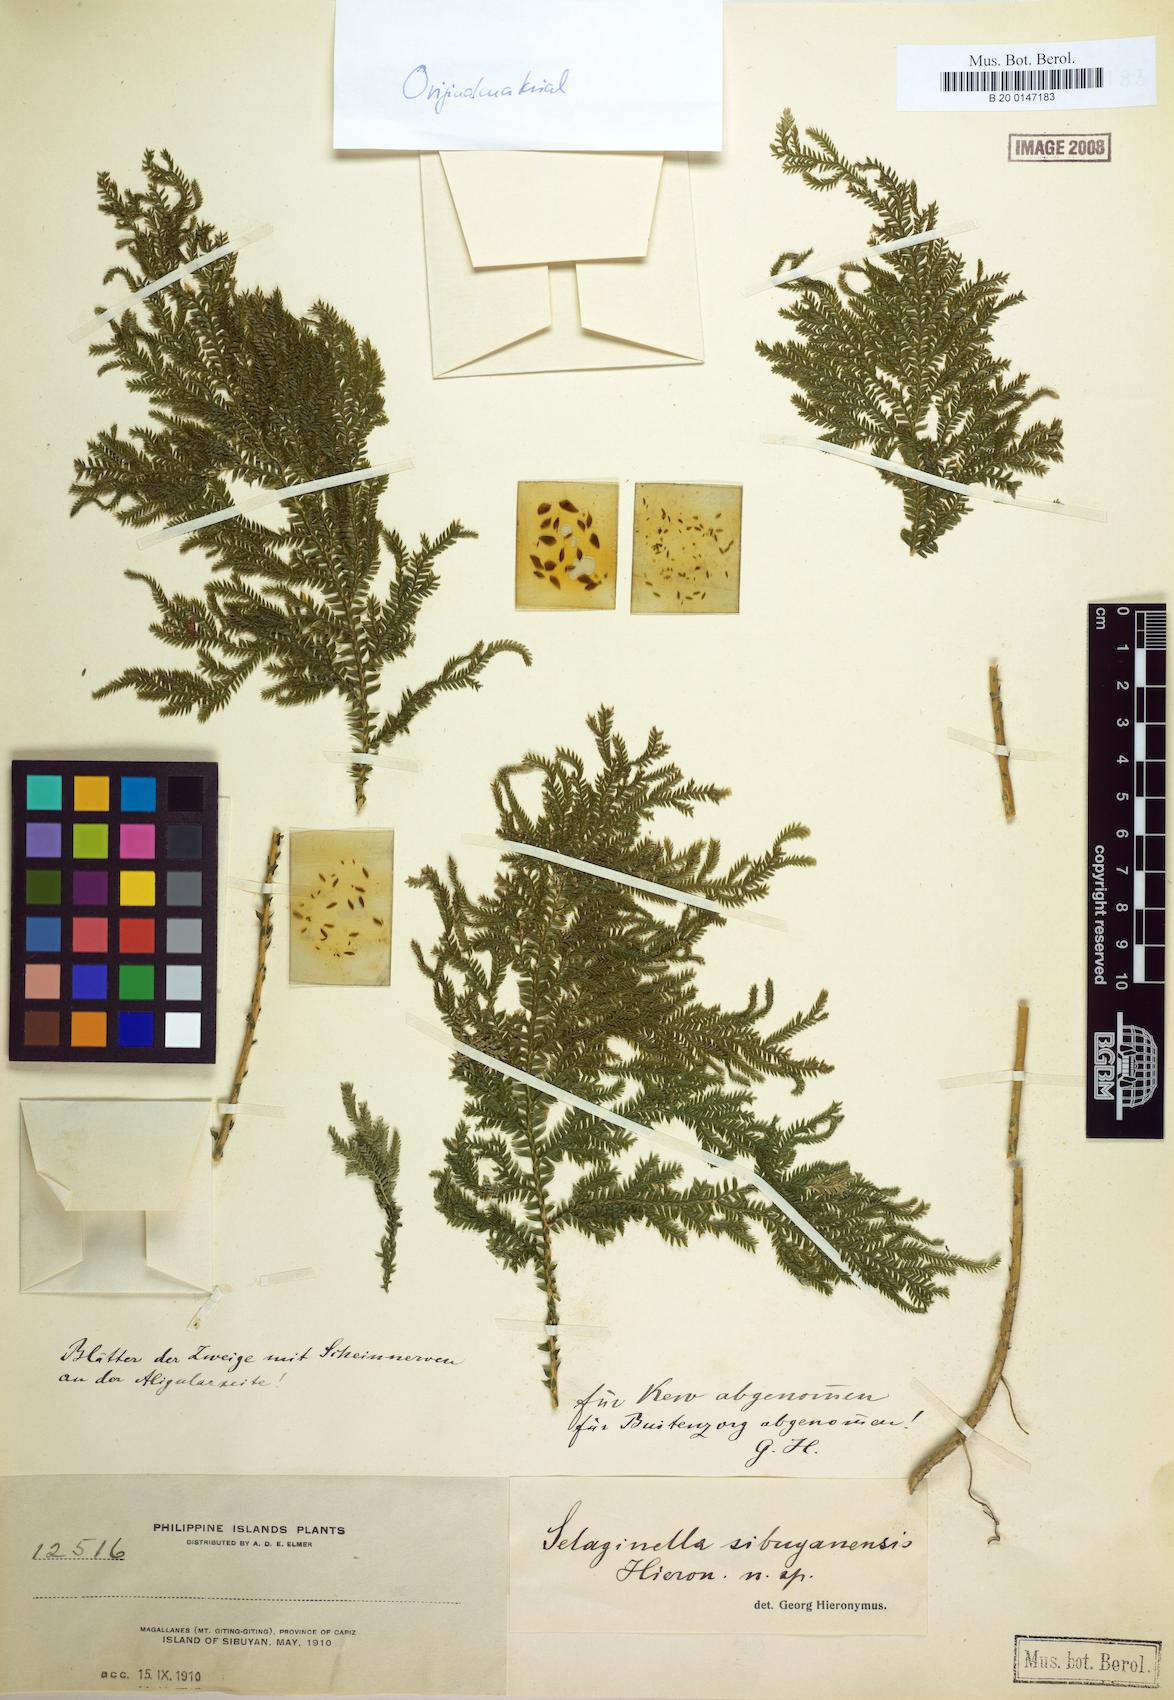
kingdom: Plantae
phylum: Tracheophyta
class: Lycopodiopsida
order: Selaginellales
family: Selaginellaceae
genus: Selaginella
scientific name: Selaginella jagorii
